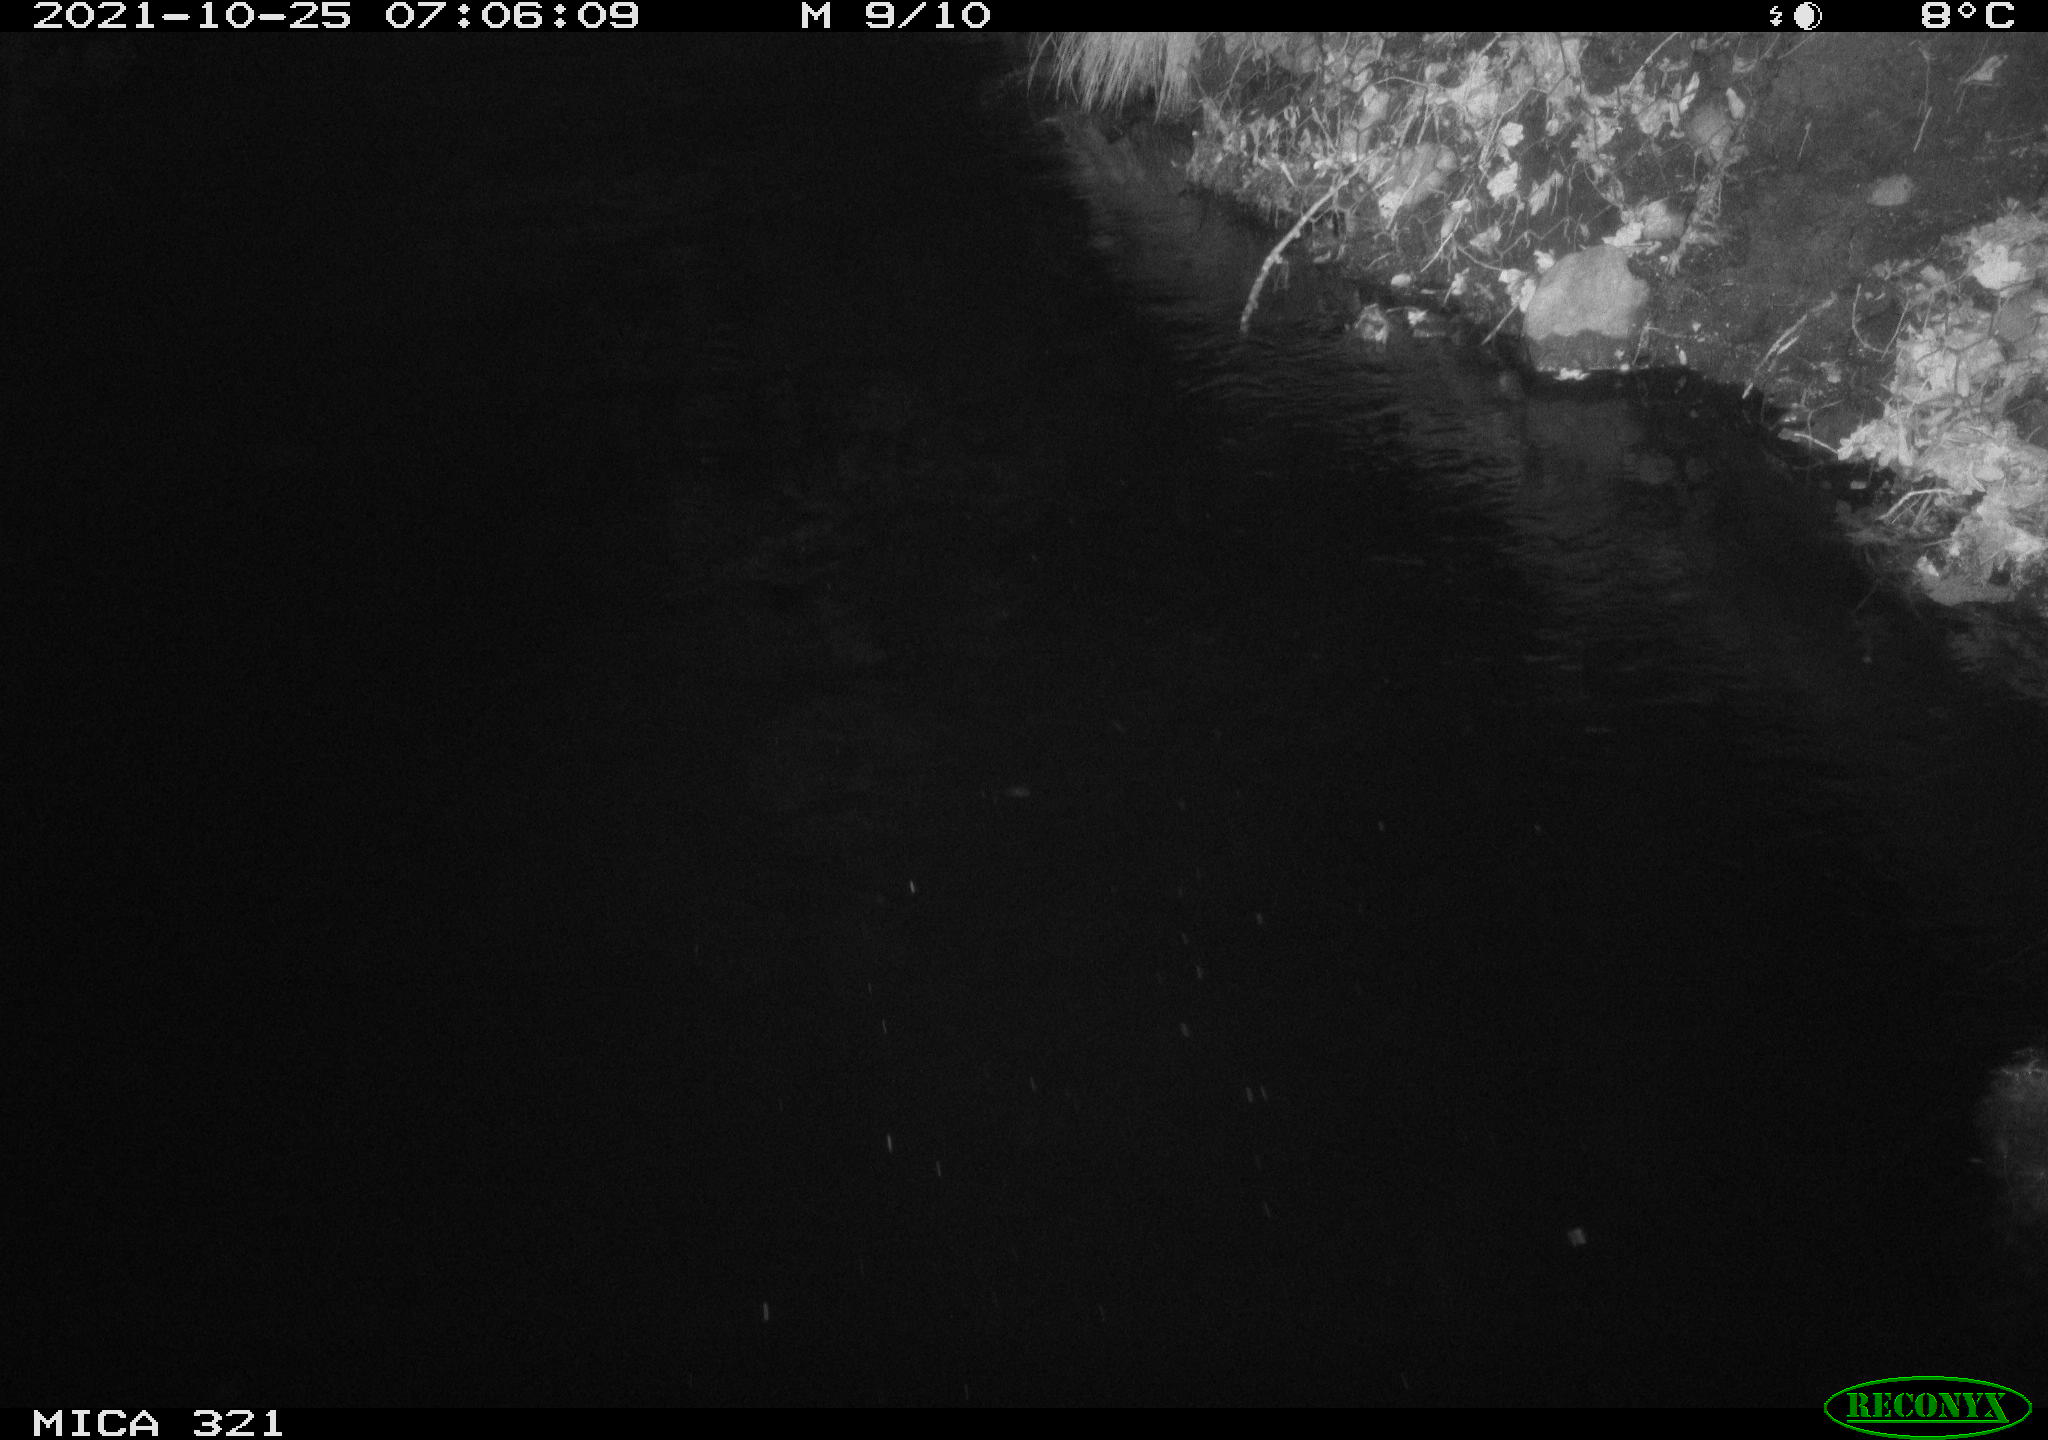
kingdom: Animalia
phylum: Chordata
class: Aves
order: Anseriformes
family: Anatidae
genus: Anas
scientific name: Anas platyrhynchos
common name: Mallard
